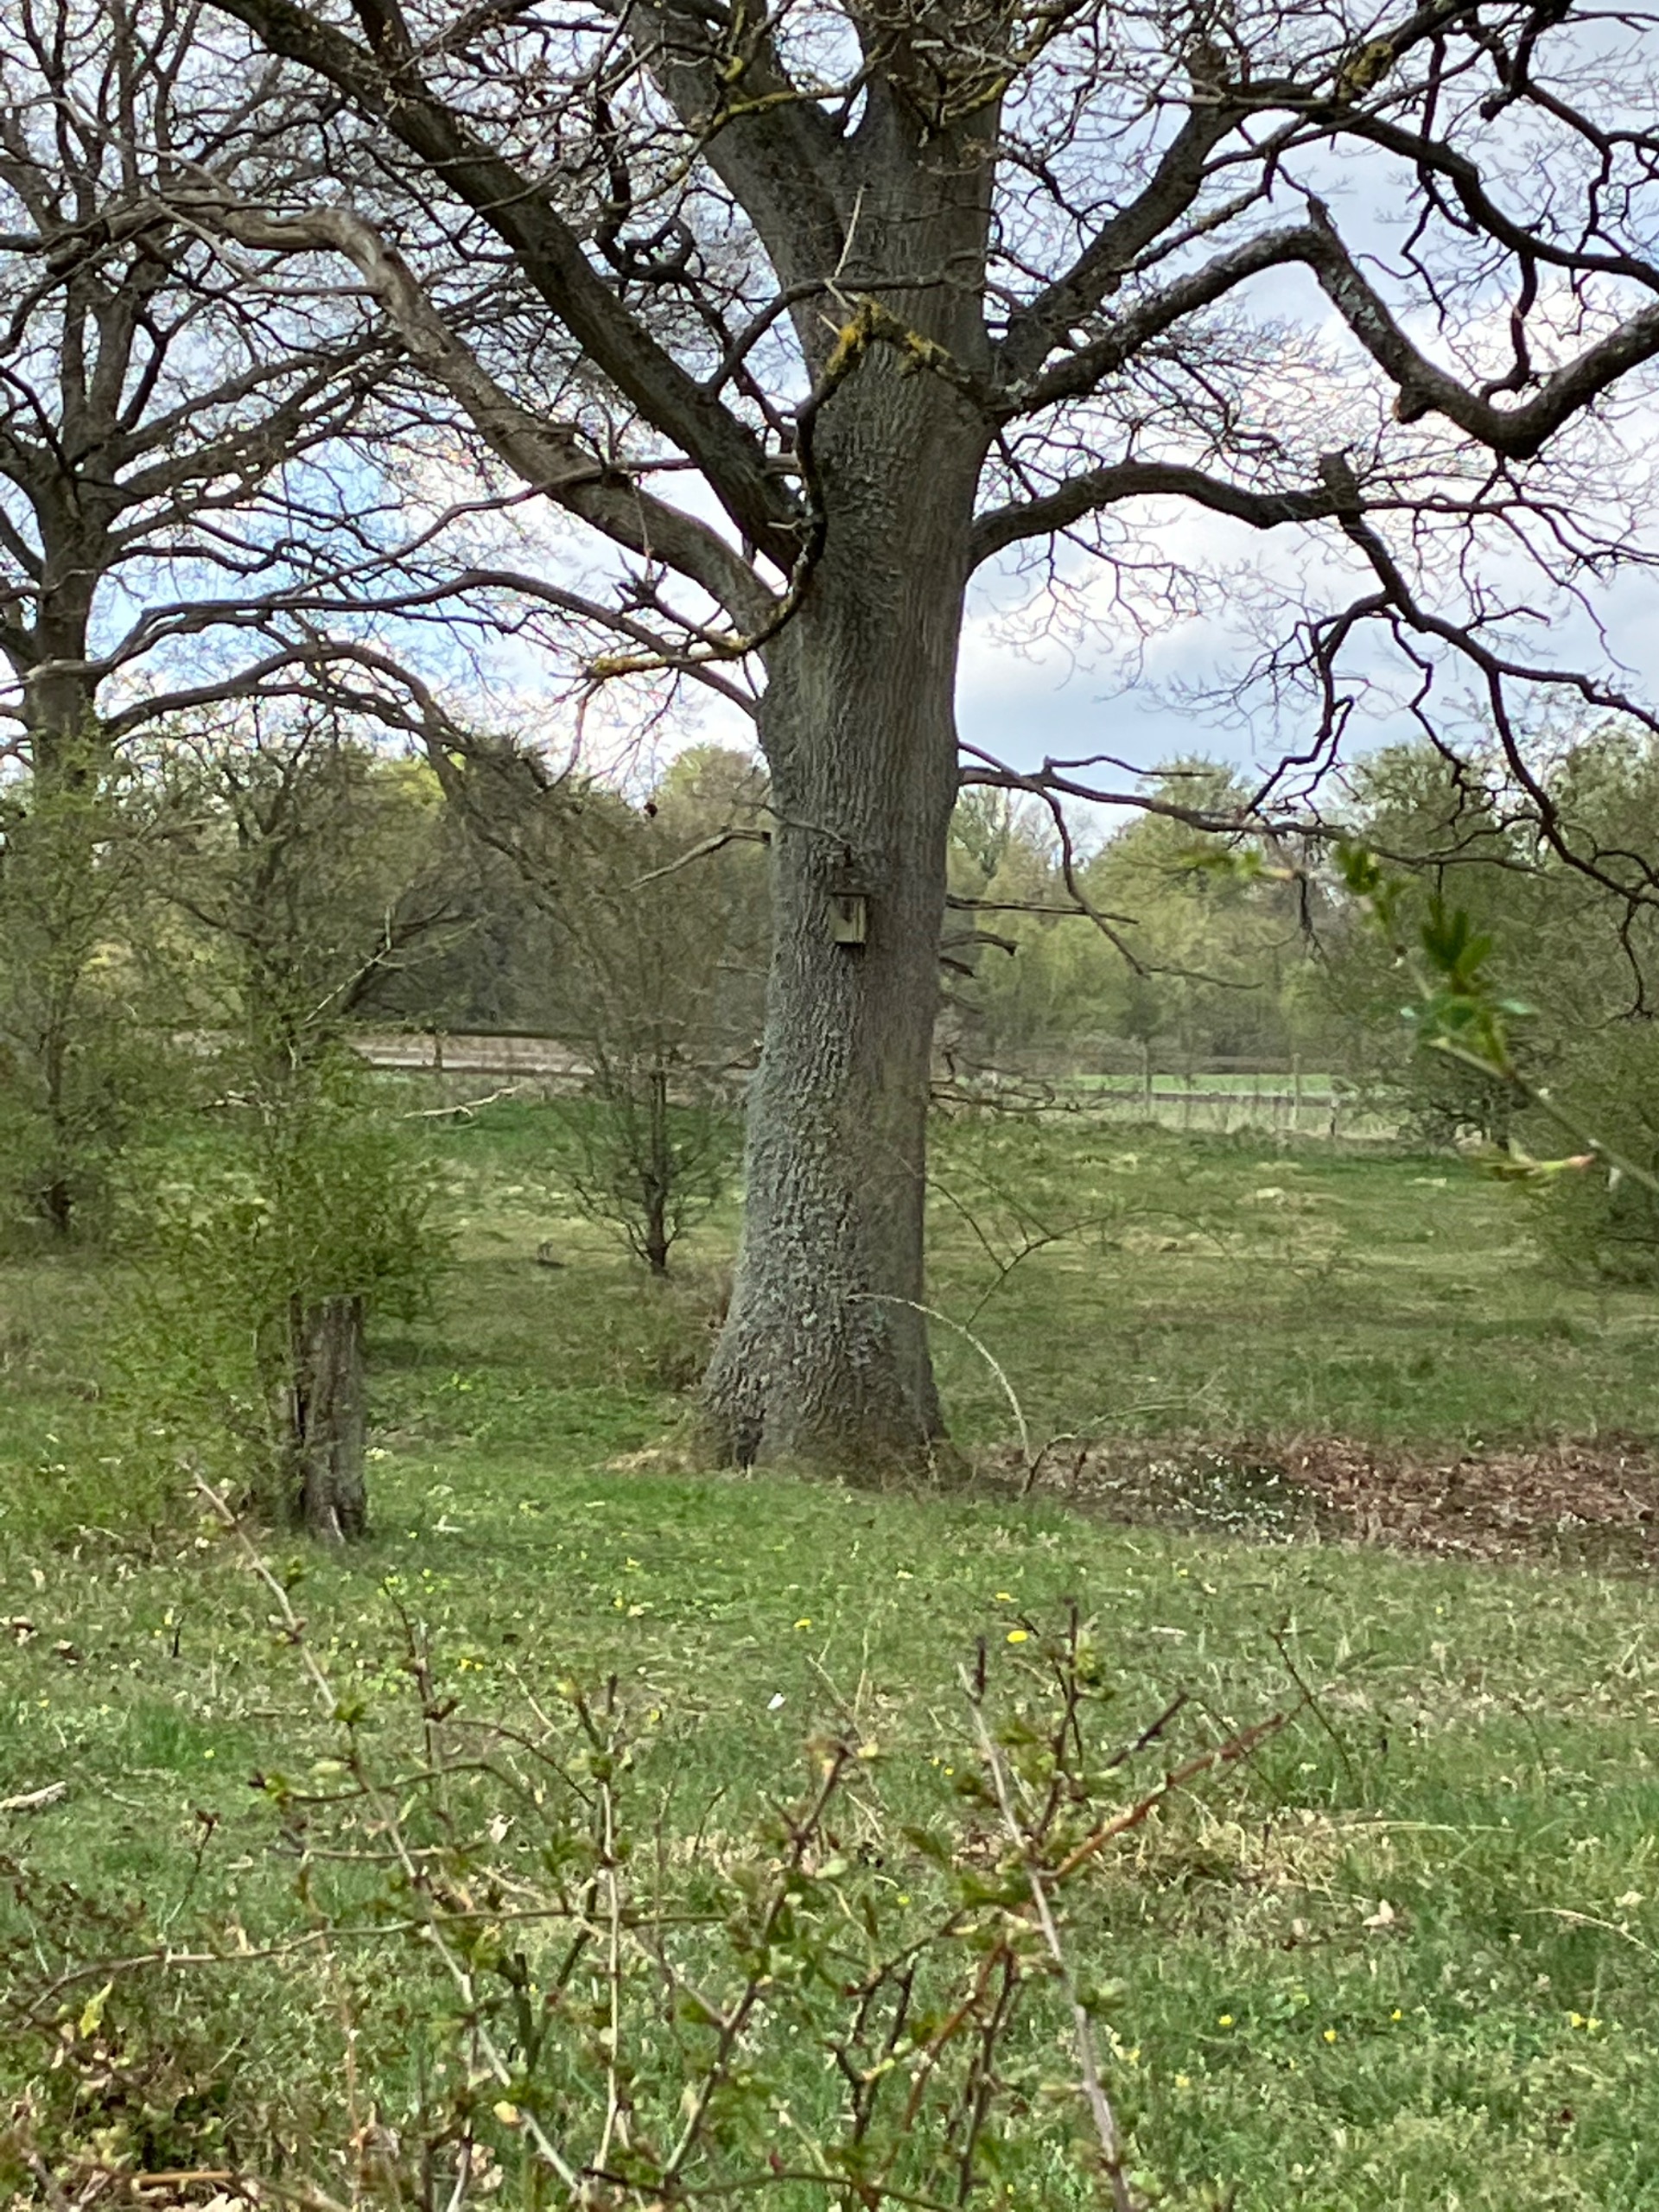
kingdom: Animalia
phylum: Chordata
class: Aves
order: Piciformes
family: Picidae
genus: Jynx
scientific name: Jynx torquilla
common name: Vendehals
